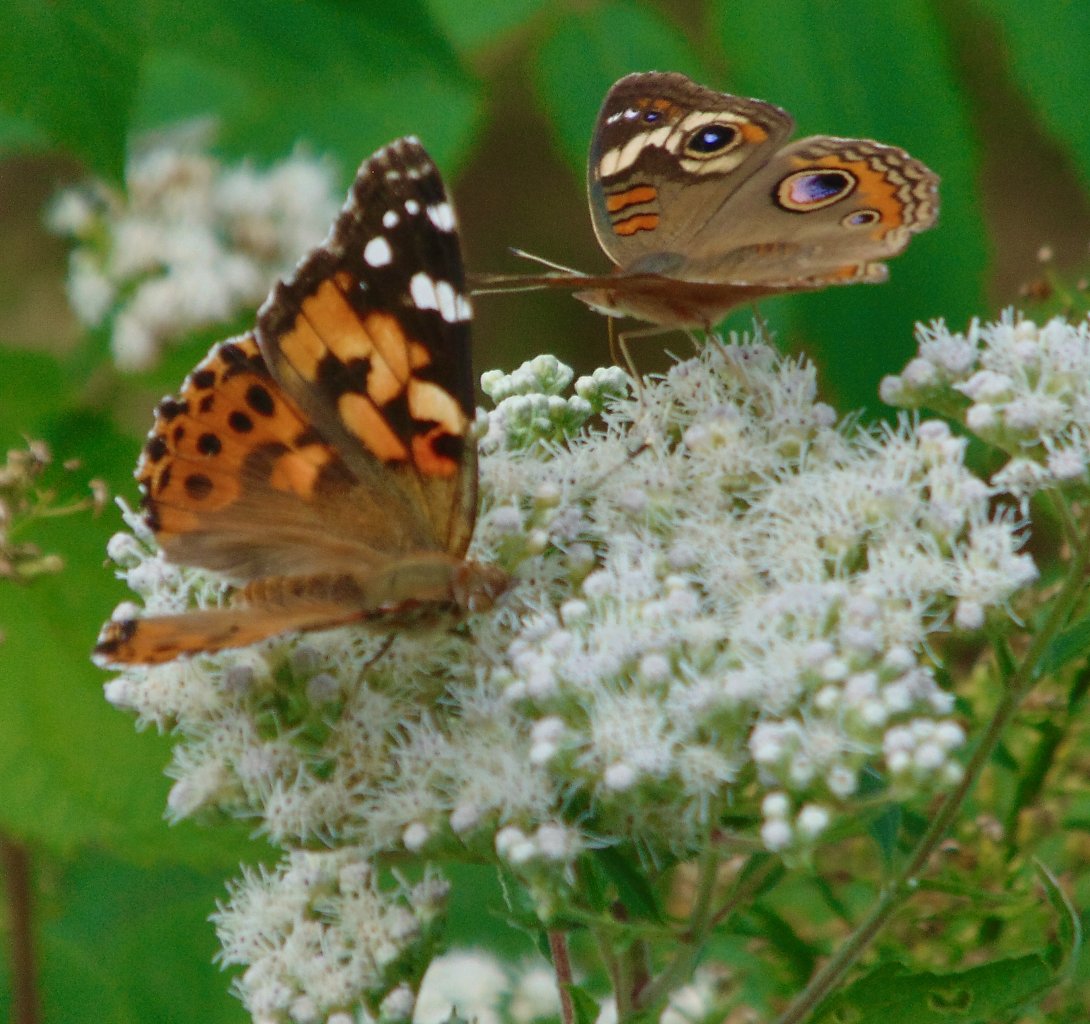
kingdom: Animalia
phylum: Arthropoda
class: Insecta
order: Lepidoptera
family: Nymphalidae
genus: Junonia
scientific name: Junonia coenia
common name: Common Buckeye
